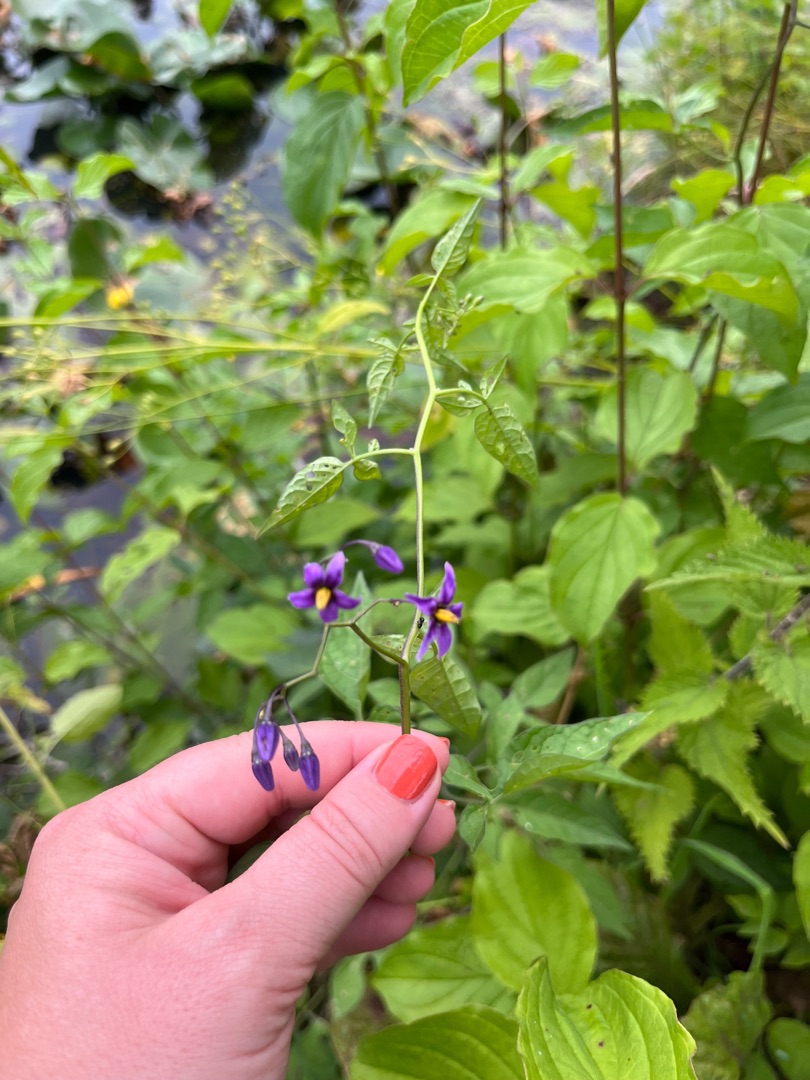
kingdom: Plantae
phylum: Tracheophyta
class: Magnoliopsida
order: Solanales
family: Solanaceae
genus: Solanum
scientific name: Solanum dulcamara
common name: Bittersød natskygge
